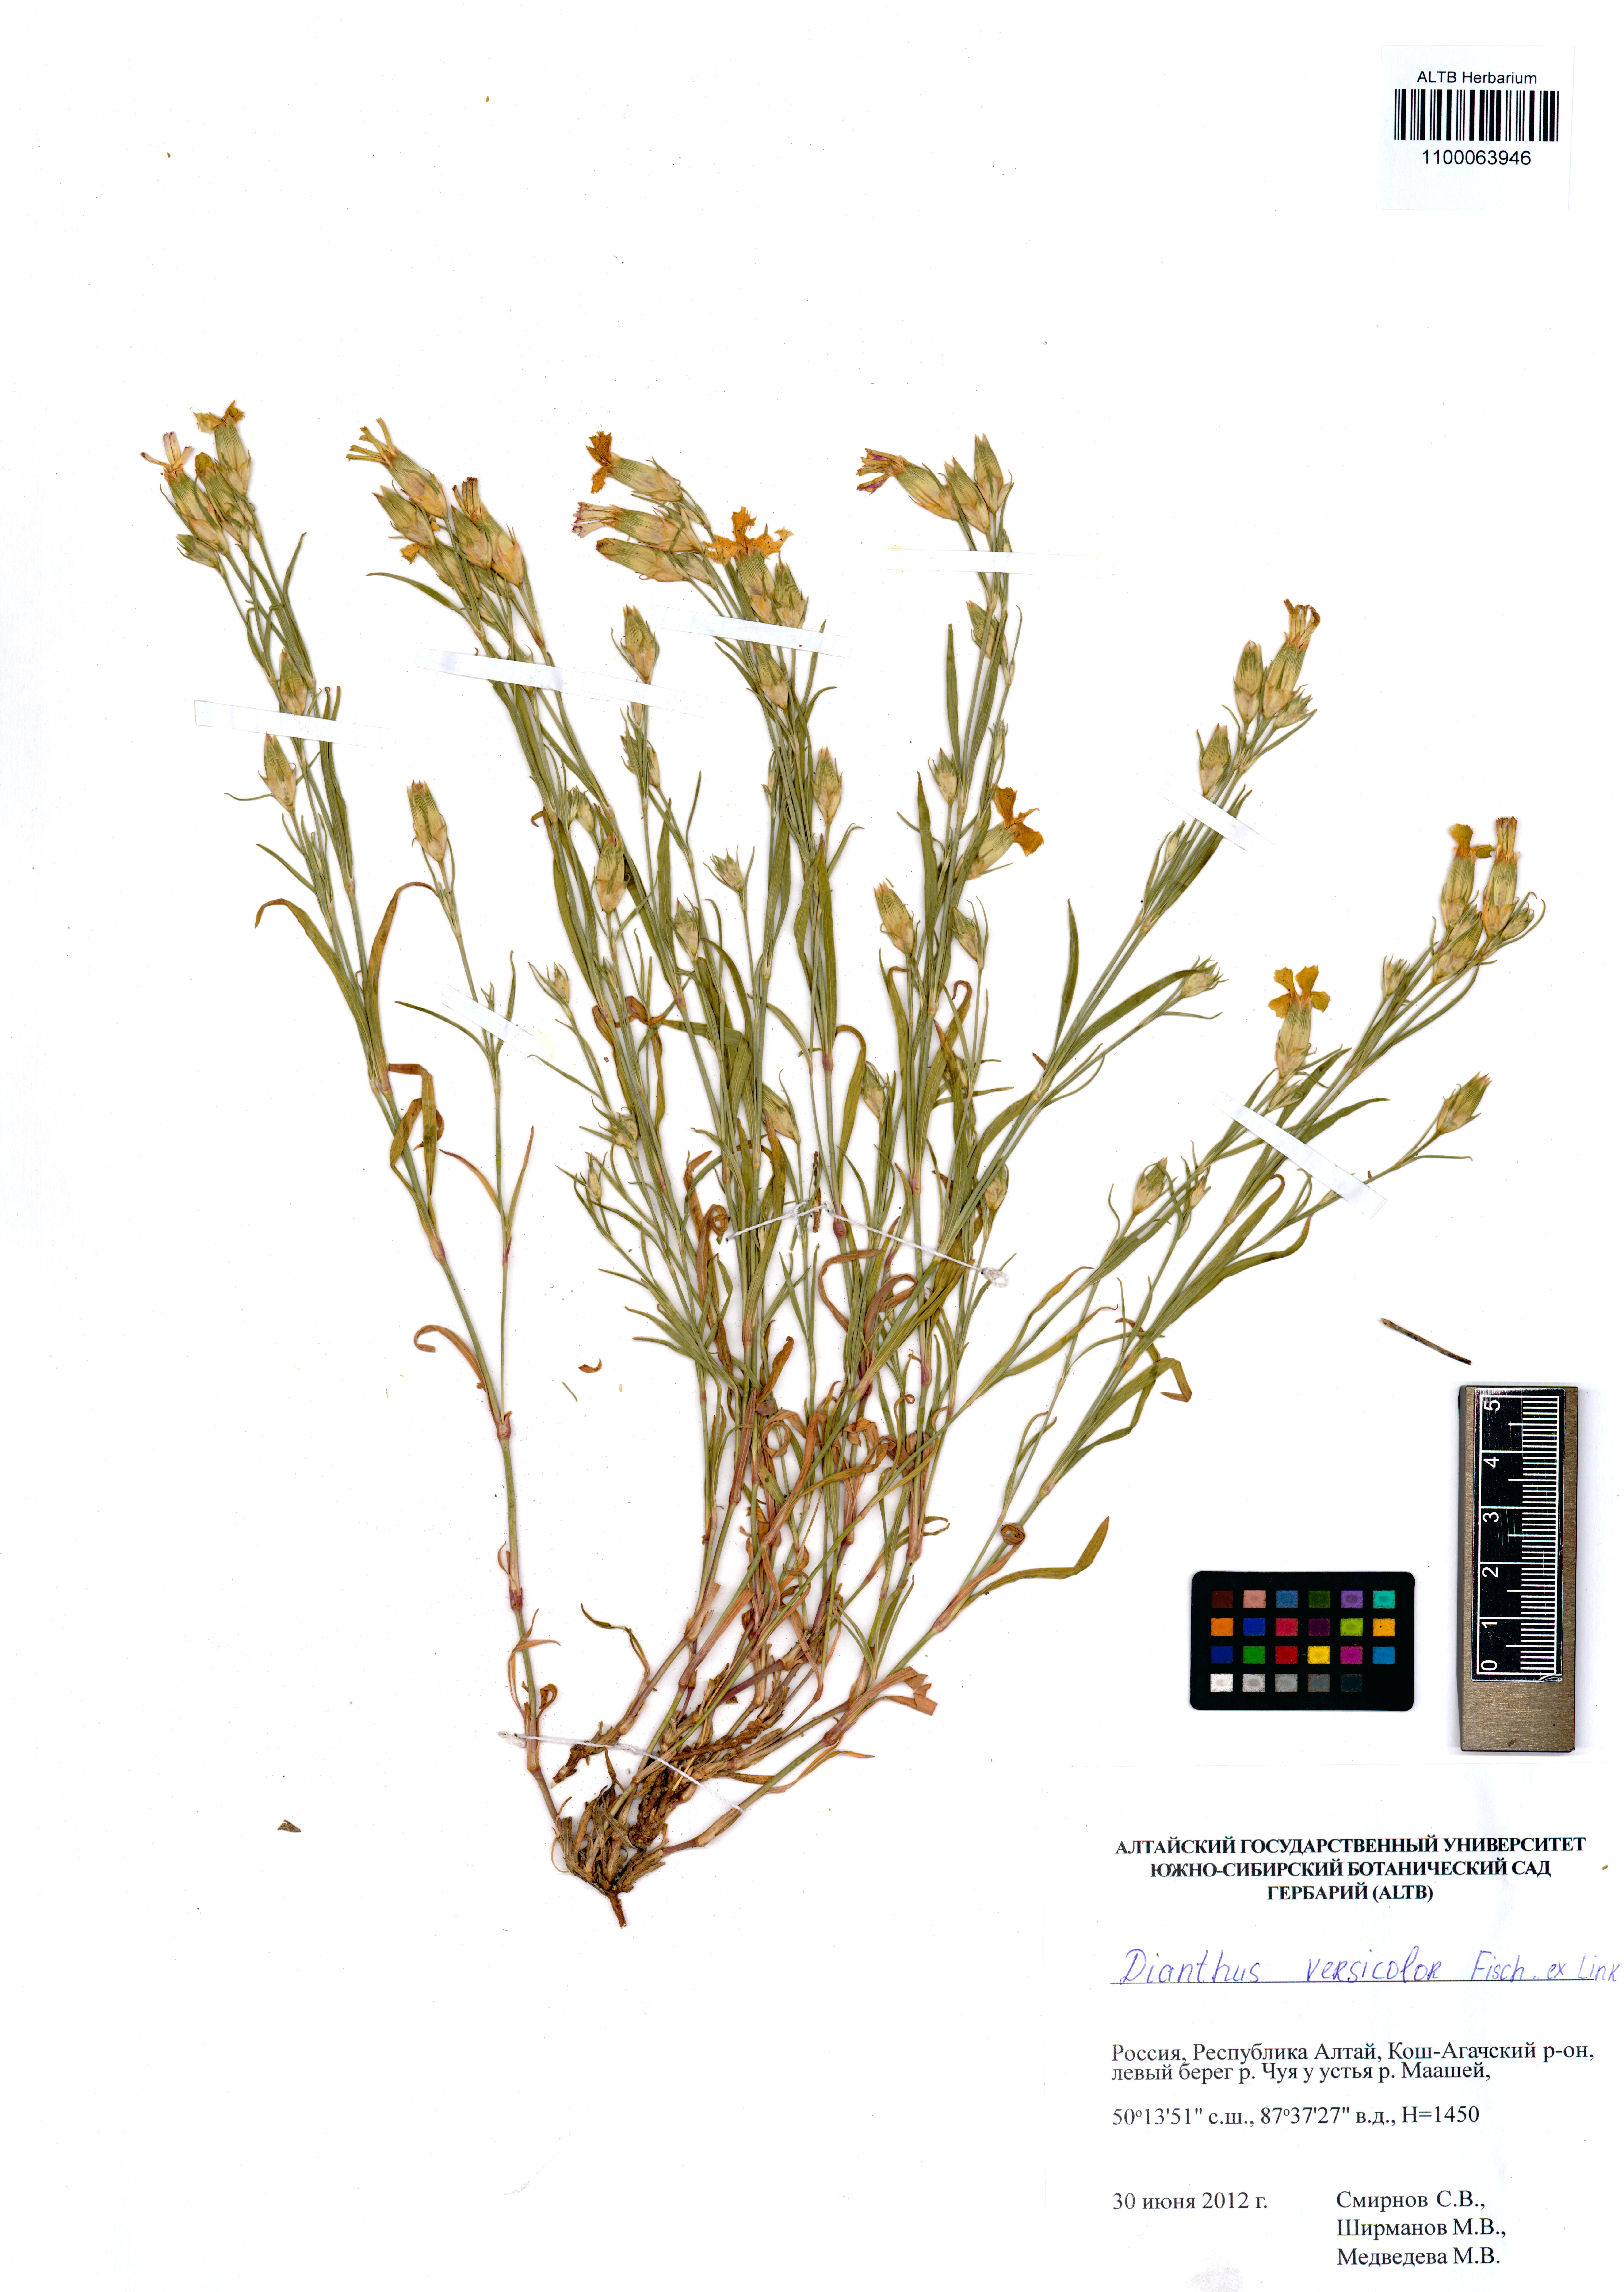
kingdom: Plantae
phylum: Tracheophyta
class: Magnoliopsida
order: Caryophyllales
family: Caryophyllaceae
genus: Dianthus
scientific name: Dianthus chinensis
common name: Rainbow pink
